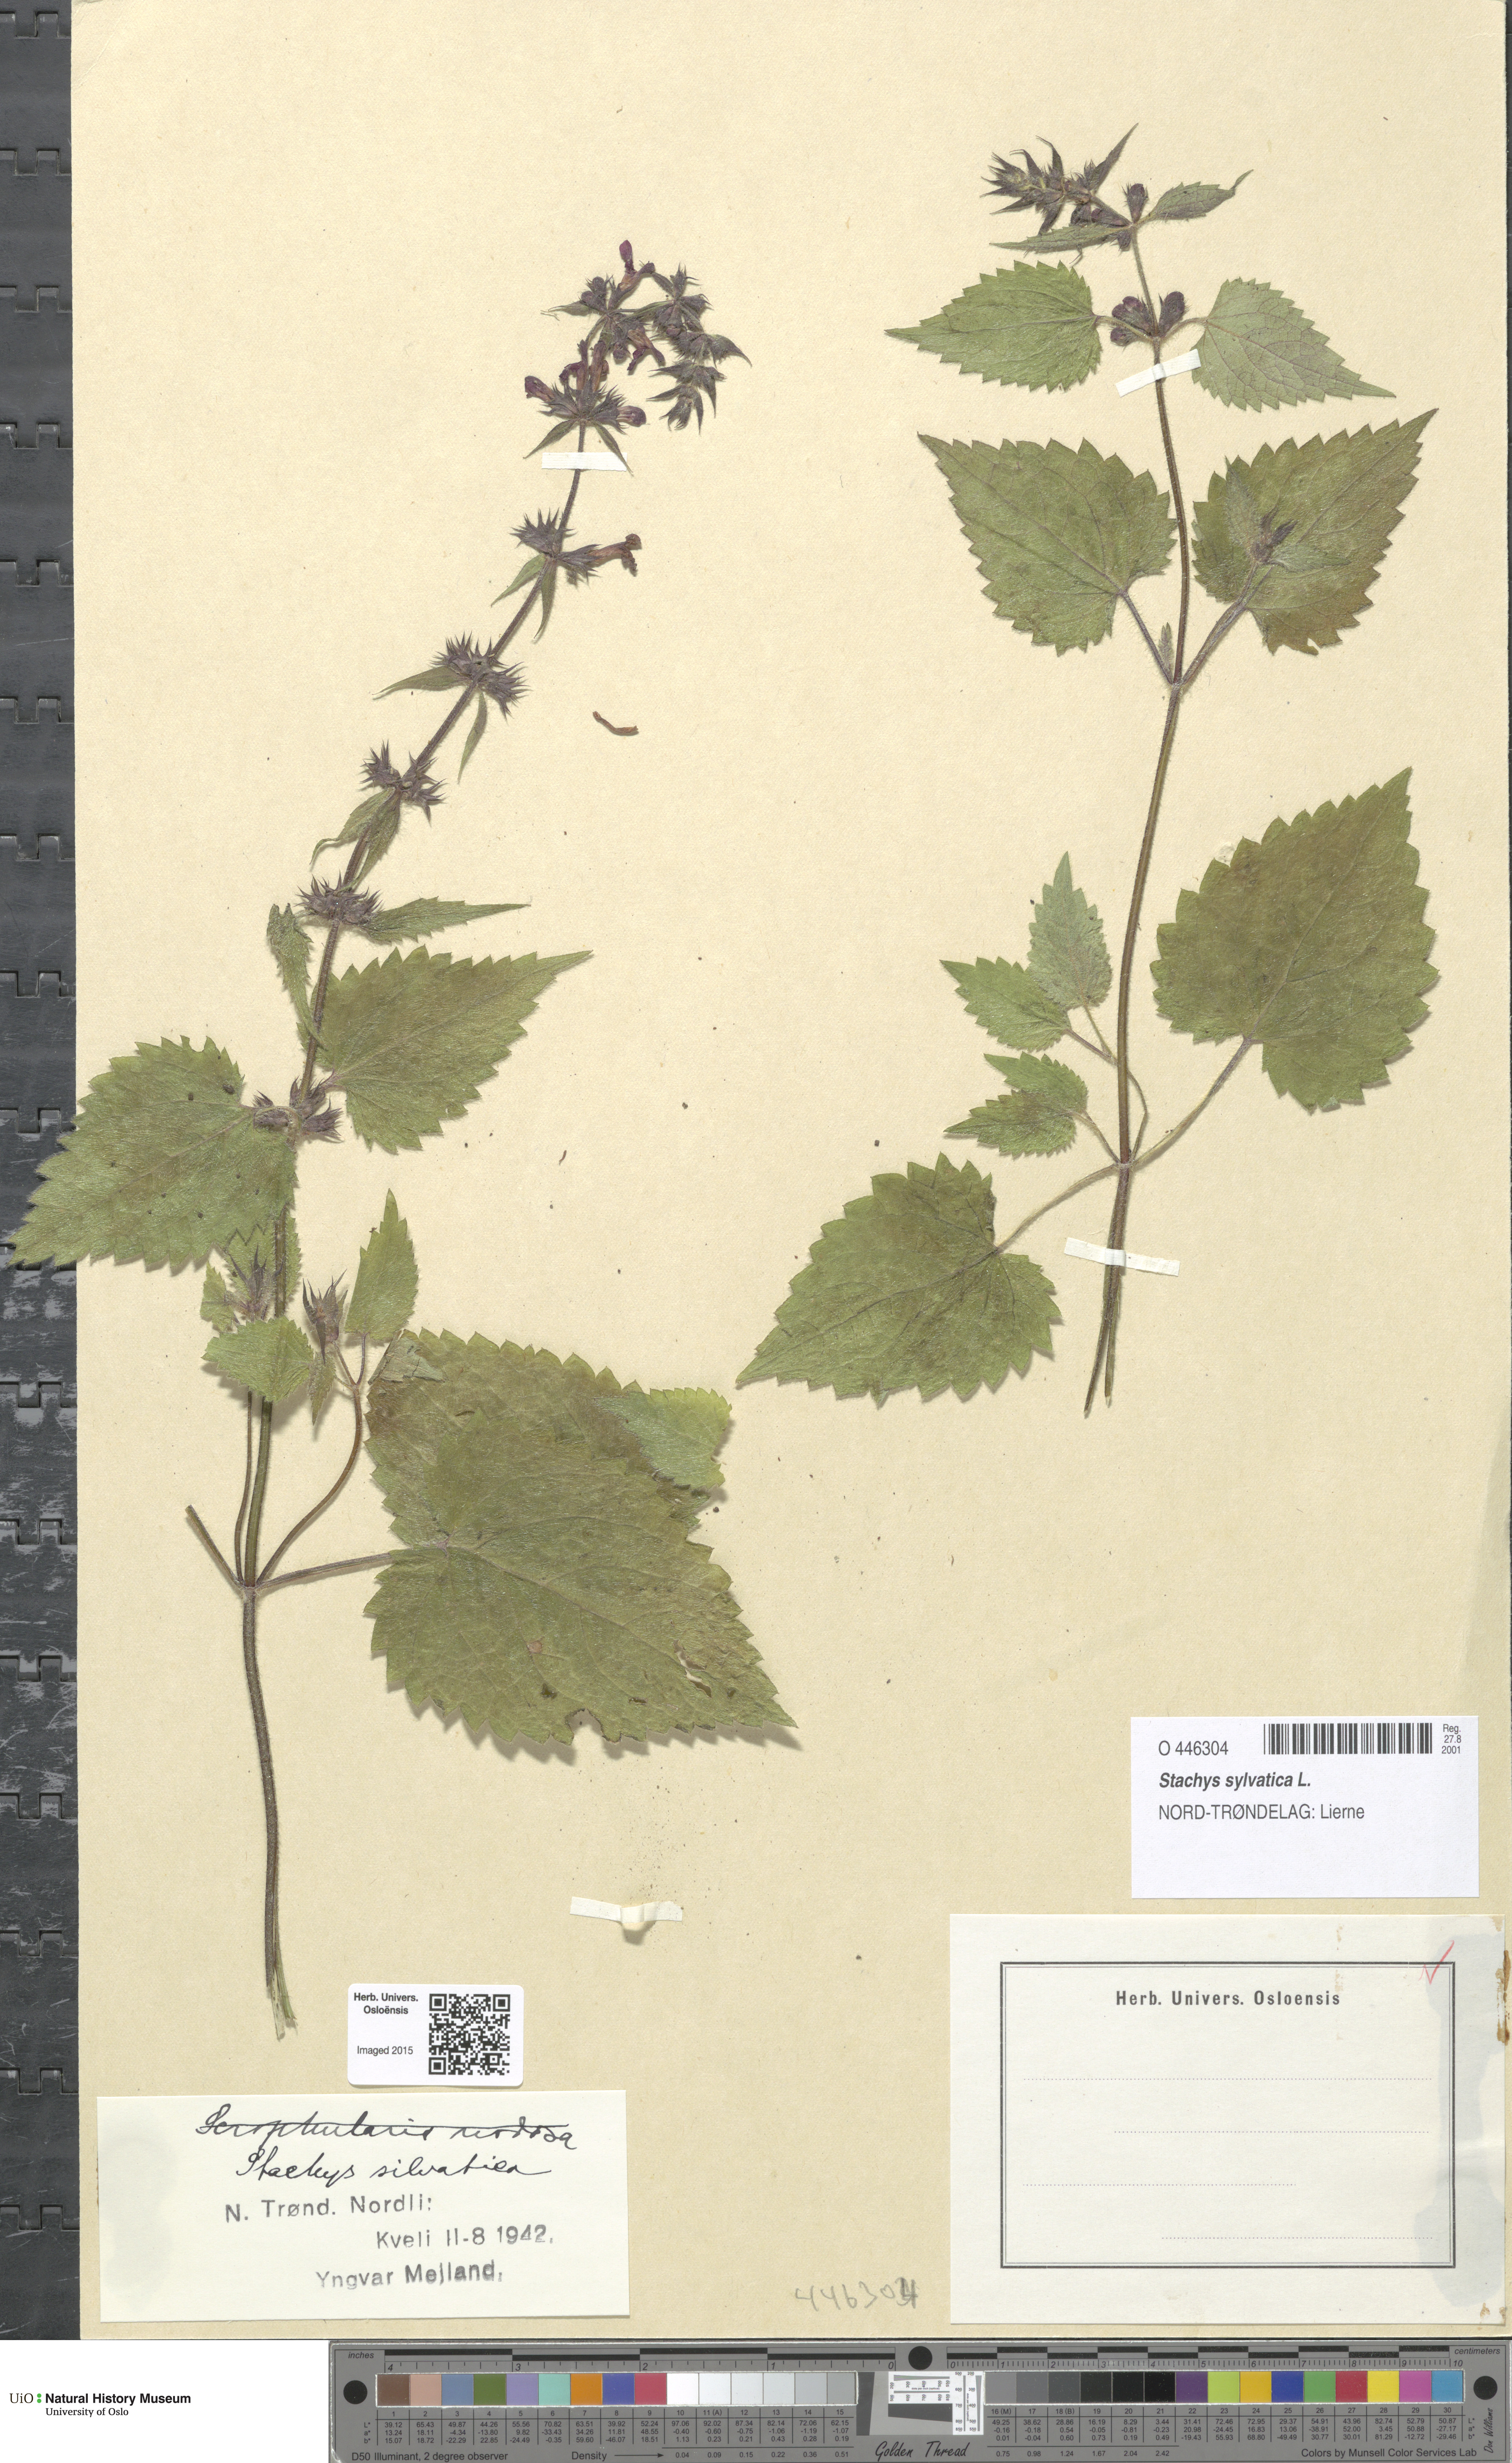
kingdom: Plantae
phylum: Tracheophyta
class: Magnoliopsida
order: Lamiales
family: Lamiaceae
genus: Stachys
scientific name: Stachys sylvatica
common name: Hedge woundwort
